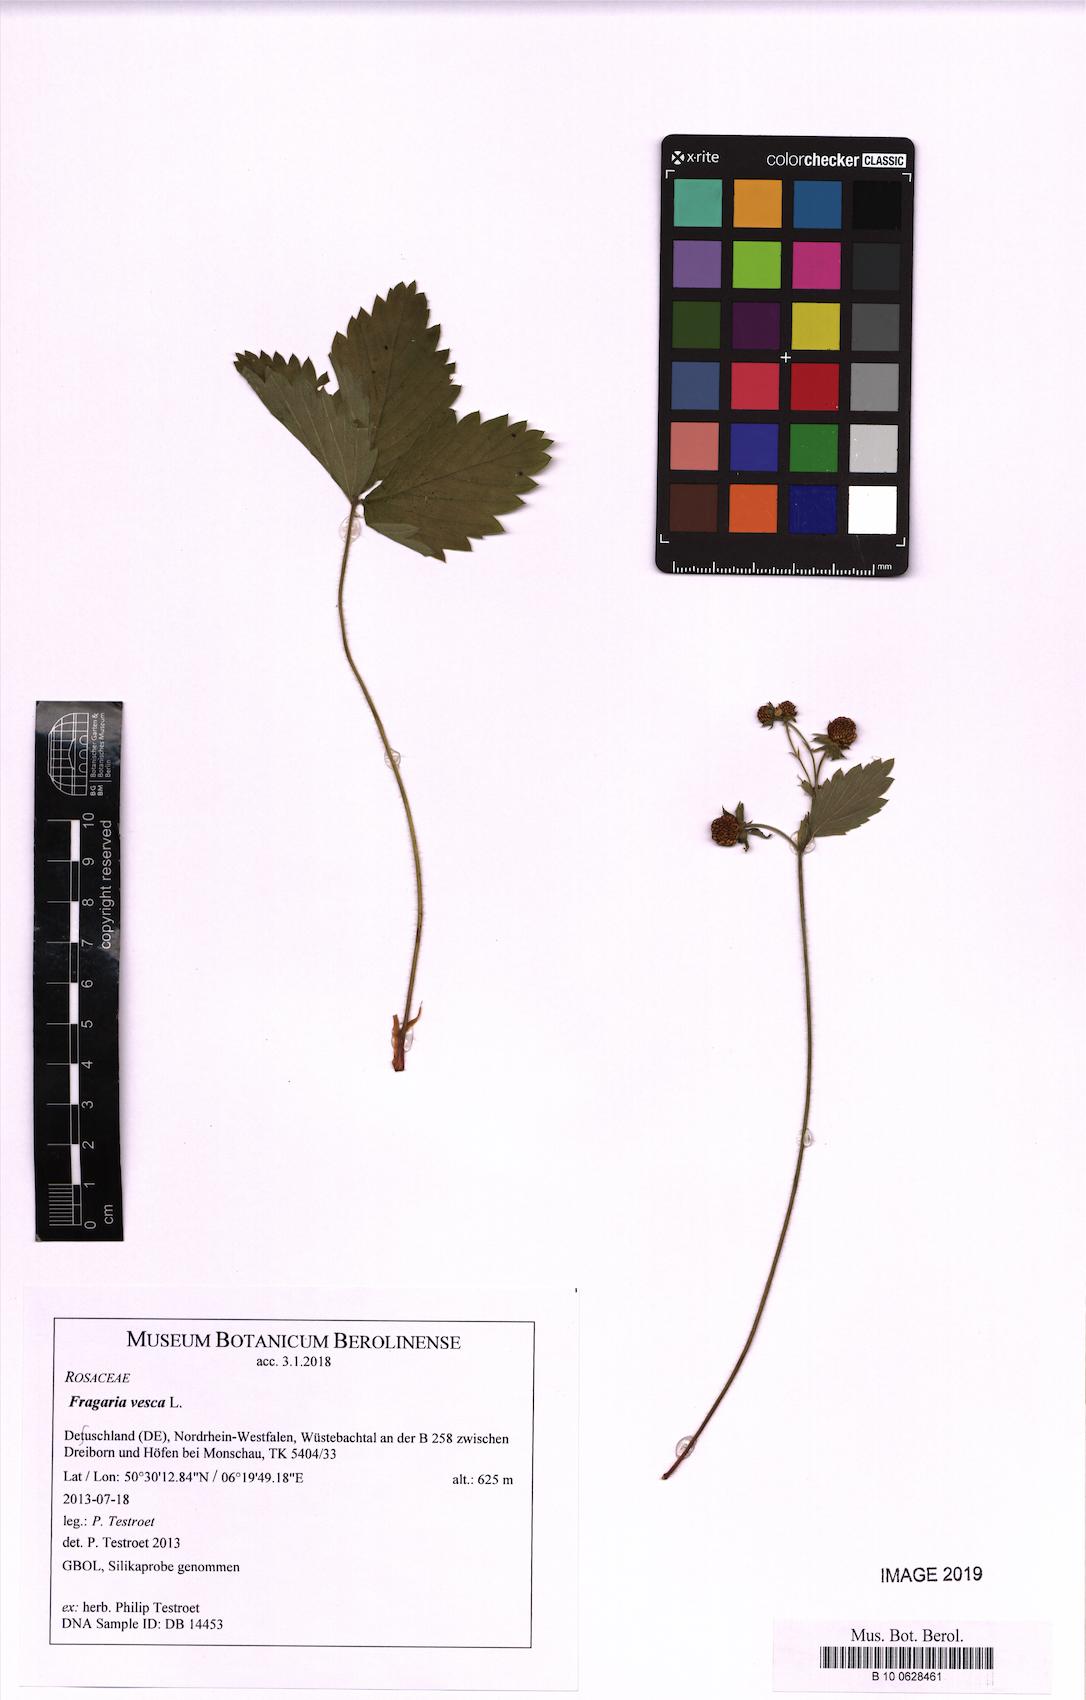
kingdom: Plantae
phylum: Tracheophyta
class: Magnoliopsida
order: Rosales
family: Rosaceae
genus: Fragaria
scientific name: Fragaria vesca
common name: Wild strawberry
